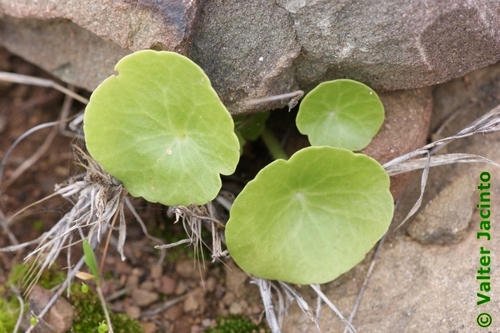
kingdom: Plantae
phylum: Tracheophyta
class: Magnoliopsida
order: Saxifragales
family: Crassulaceae
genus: Umbilicus
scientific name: Umbilicus rupestris
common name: Navelwort
